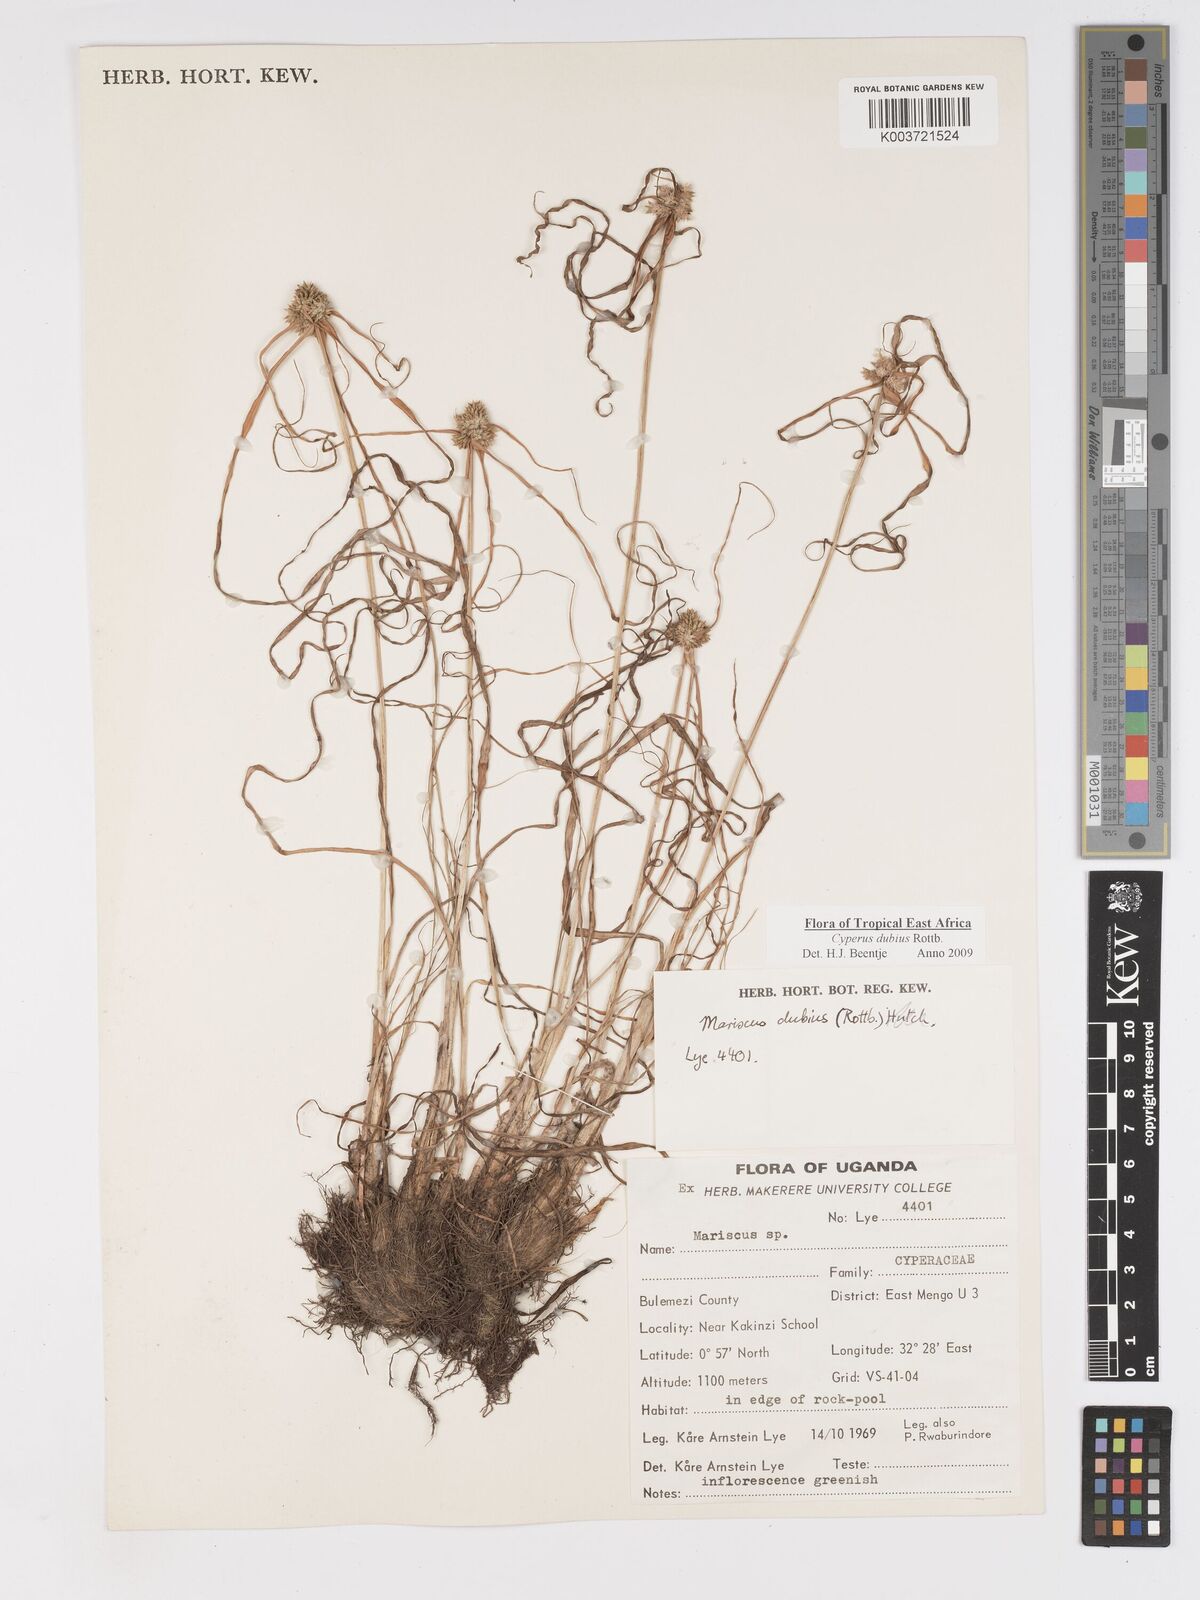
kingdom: Plantae
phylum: Tracheophyta
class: Liliopsida
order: Poales
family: Cyperaceae
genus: Cyperus
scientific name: Cyperus dubius
